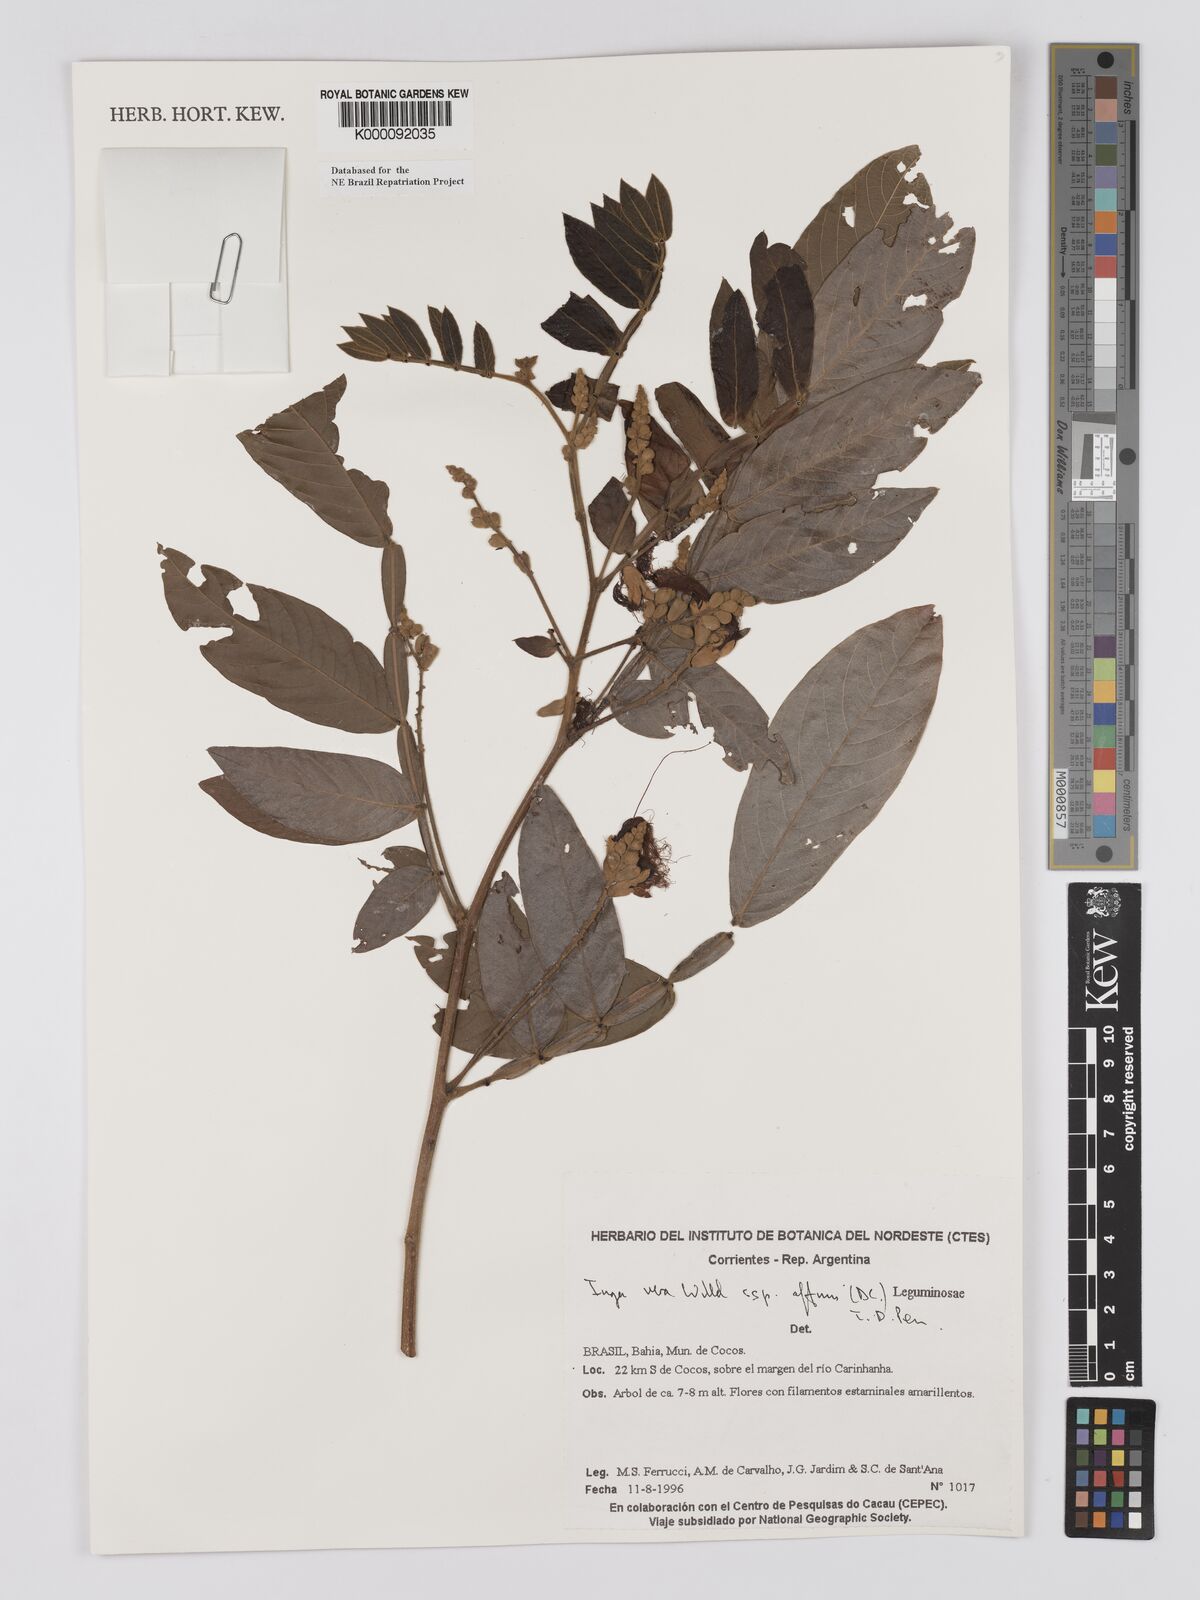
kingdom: Plantae
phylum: Tracheophyta
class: Magnoliopsida
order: Fabales
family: Fabaceae
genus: Inga
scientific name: Inga affinis
